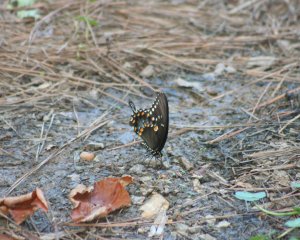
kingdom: Animalia
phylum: Arthropoda
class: Insecta
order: Lepidoptera
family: Papilionidae
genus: Pterourus
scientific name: Pterourus troilus
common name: Spicebush Swallowtail
